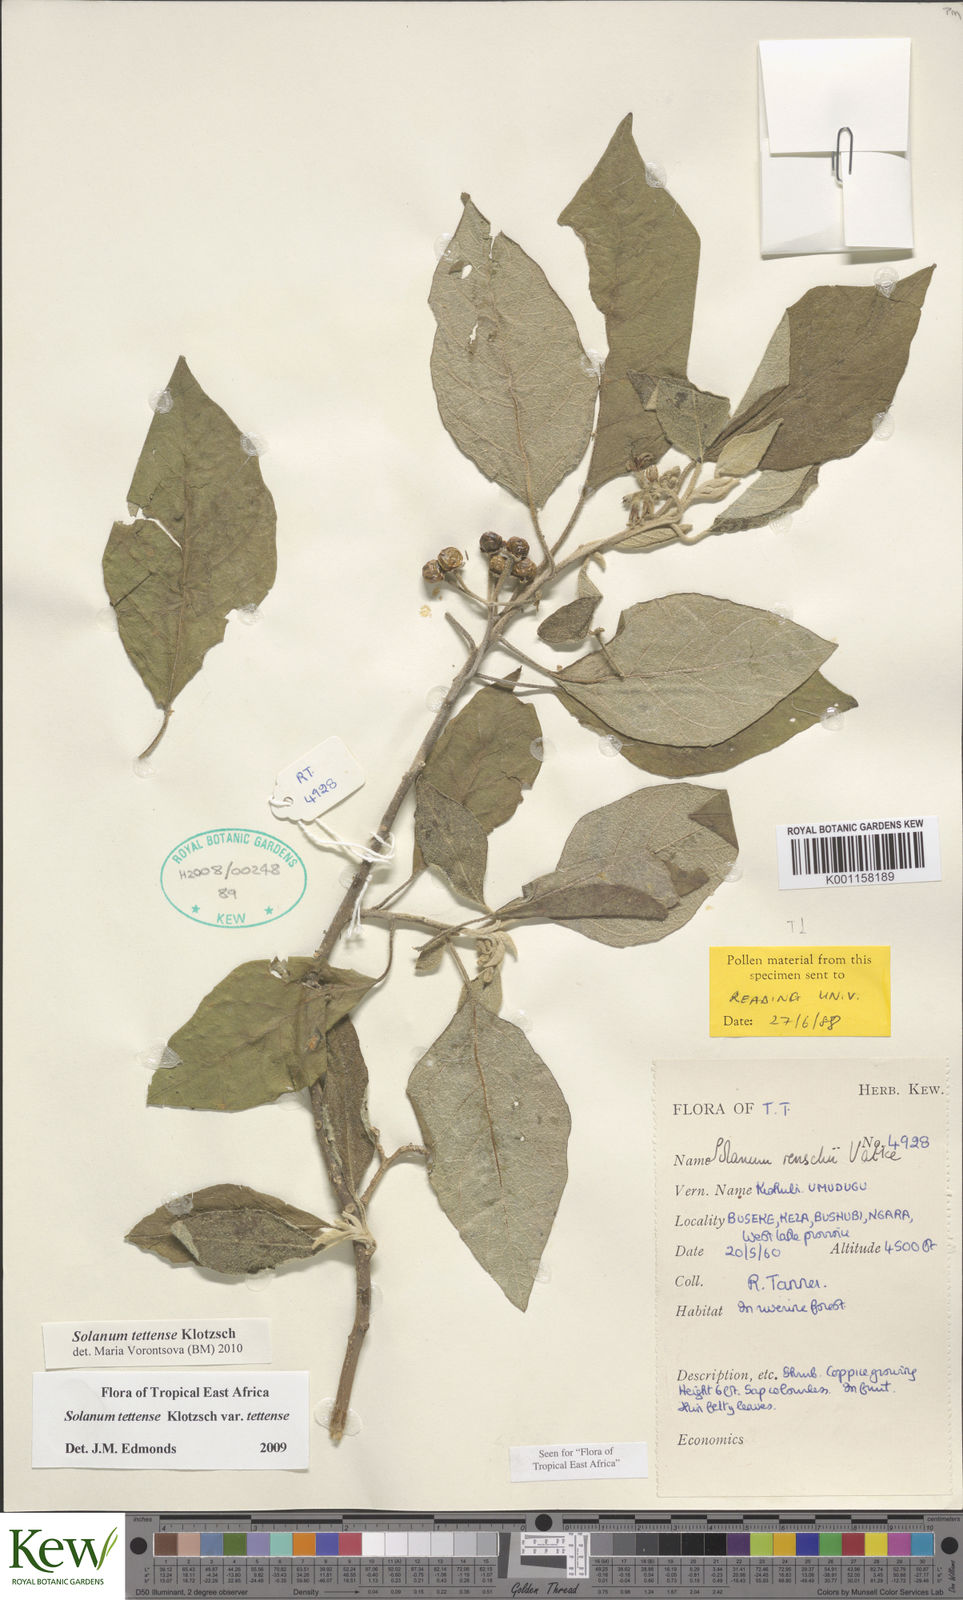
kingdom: Plantae
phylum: Tracheophyta
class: Magnoliopsida
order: Solanales
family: Solanaceae
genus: Solanum
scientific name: Solanum tettense
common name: Mozambique bitter apple
